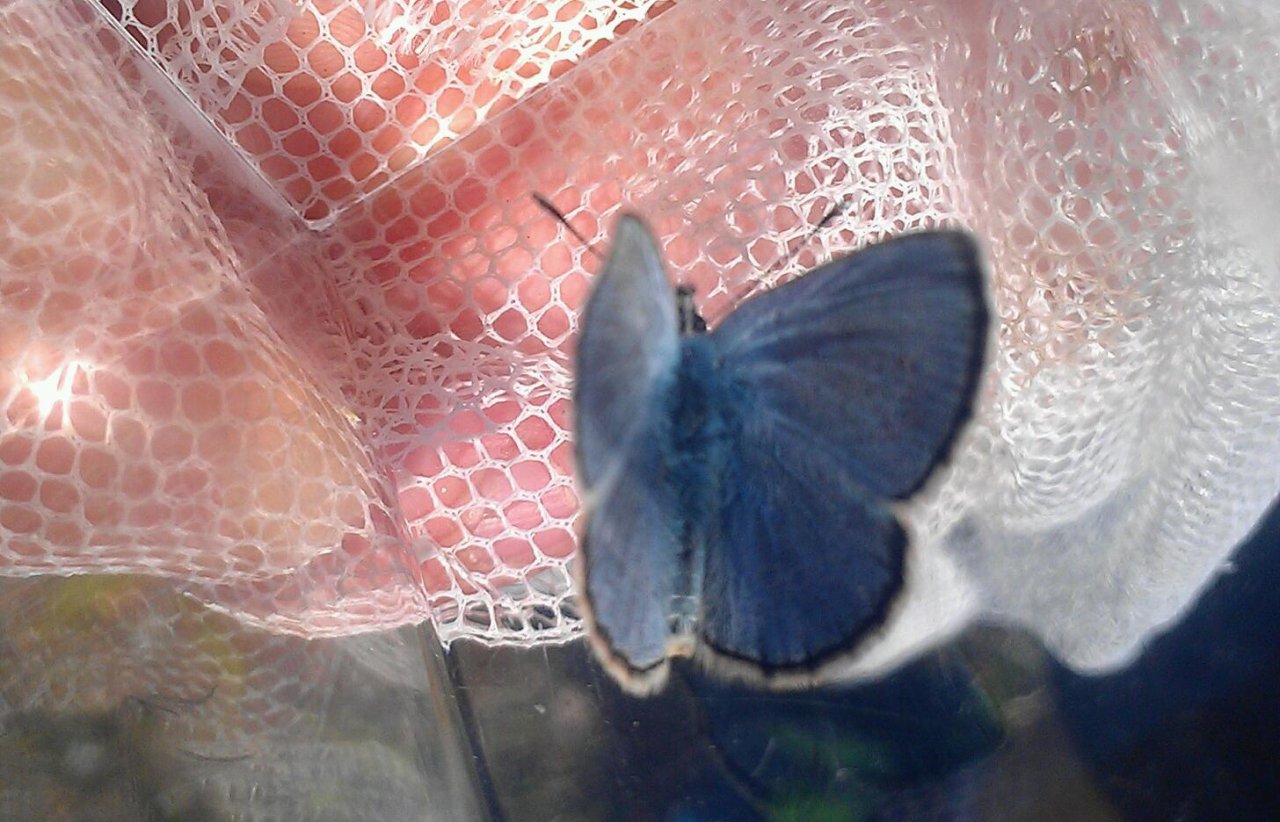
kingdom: Animalia
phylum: Arthropoda
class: Insecta
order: Lepidoptera
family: Lycaenidae
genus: Glaucopsyche
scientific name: Glaucopsyche lygdamus
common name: Silvery Blue
